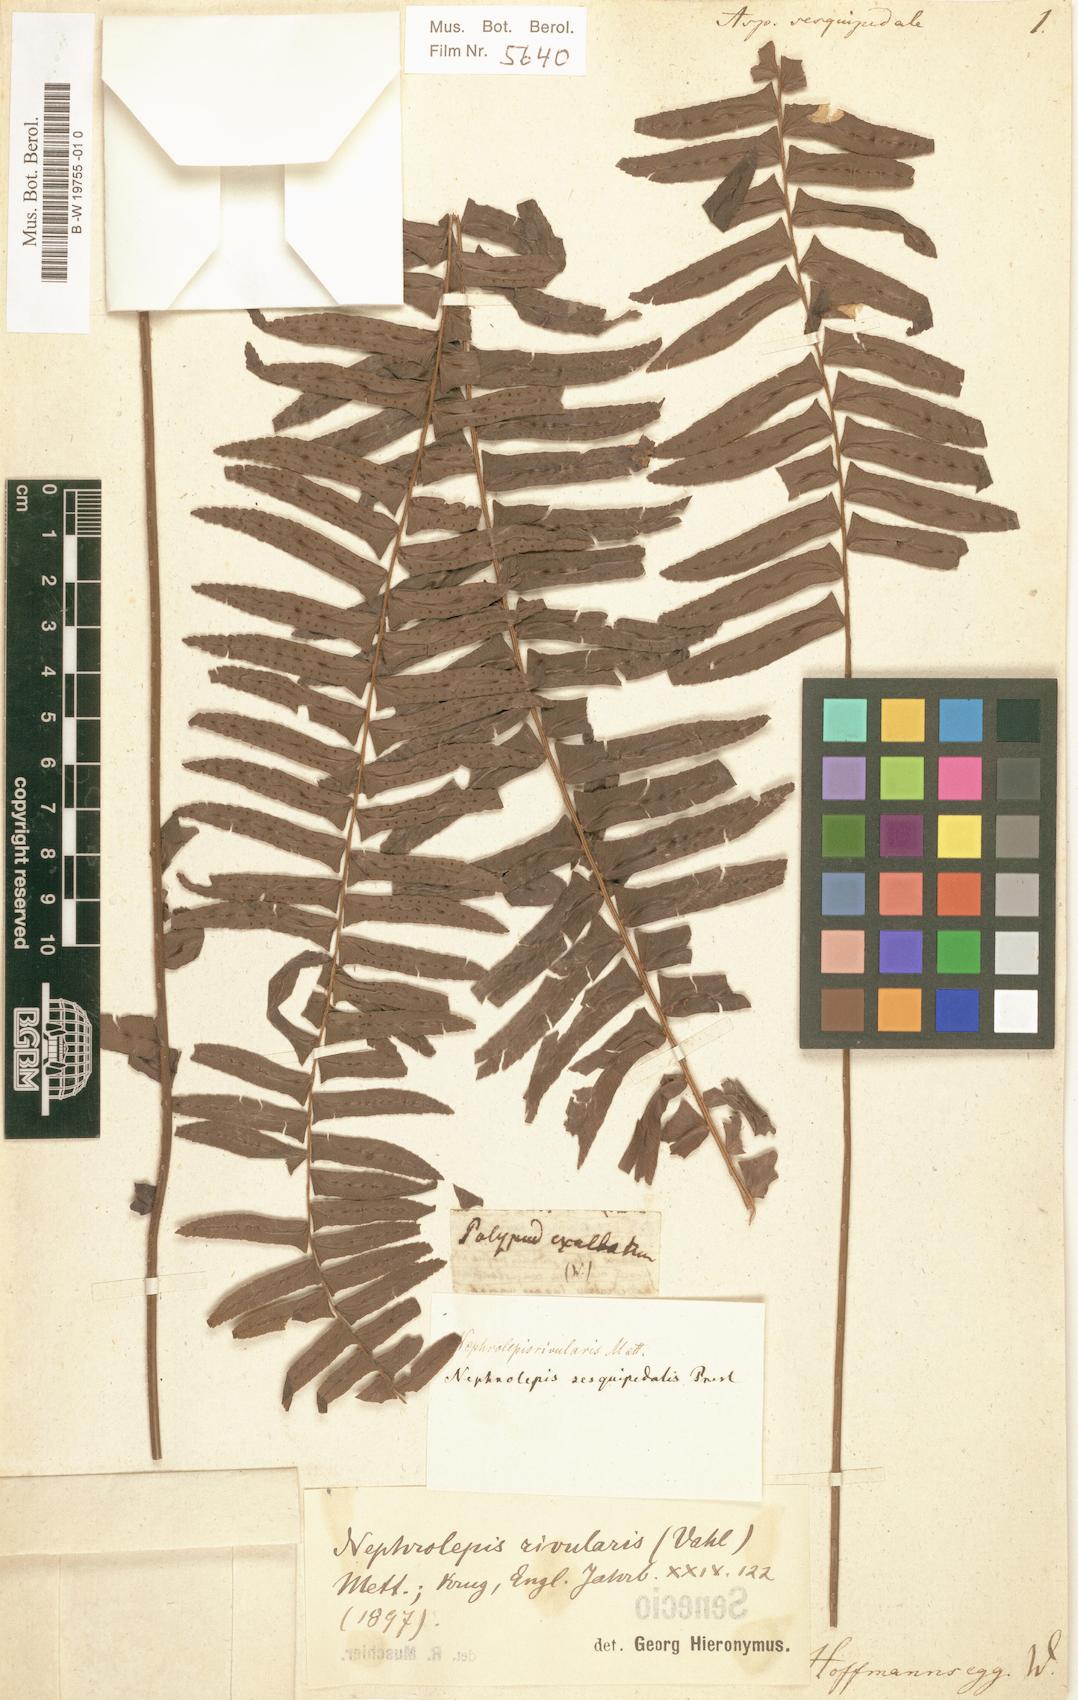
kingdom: Plantae
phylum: Tracheophyta
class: Polypodiopsida
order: Polypodiales
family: Nephrolepidaceae
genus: Nephrolepis
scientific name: Nephrolepis rivularis
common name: Streamside swordfern
